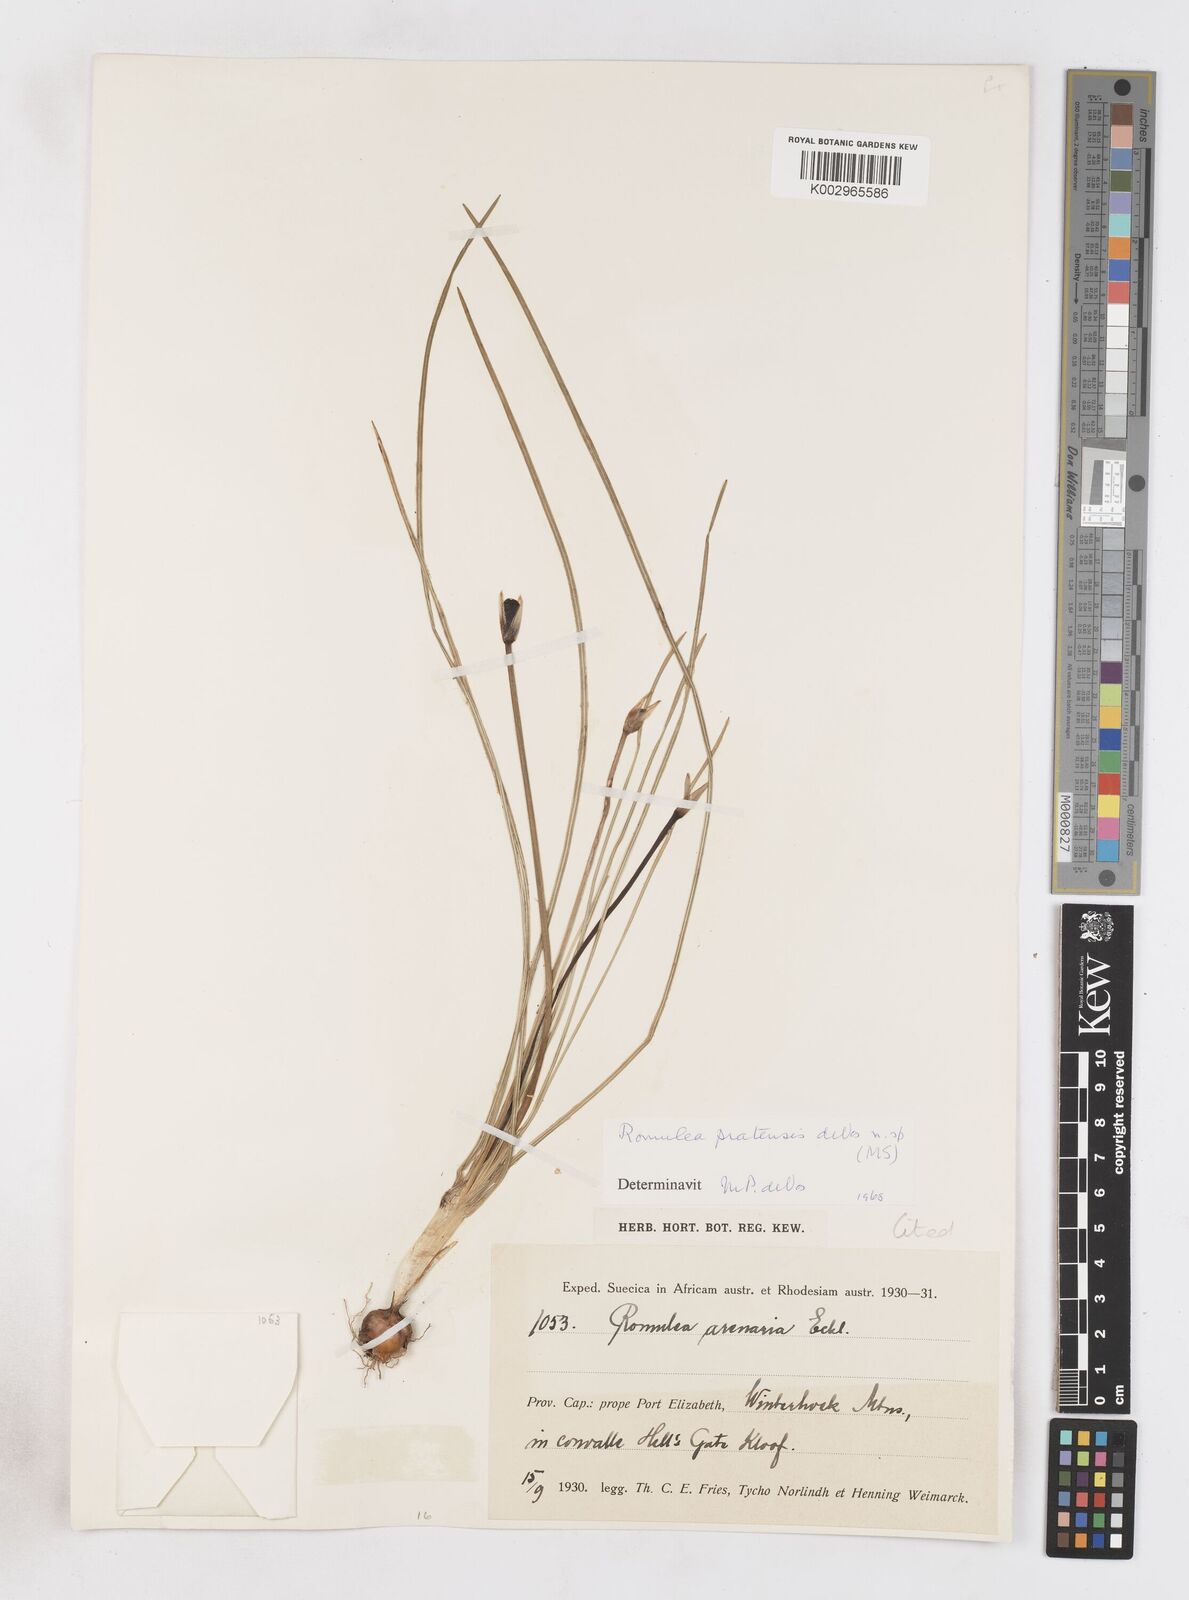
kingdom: Plantae
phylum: Tracheophyta
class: Liliopsida
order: Asparagales
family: Iridaceae
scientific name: Iridaceae
